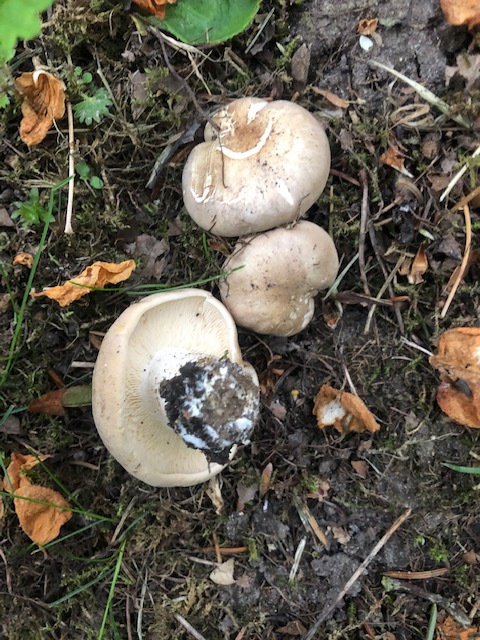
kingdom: Fungi
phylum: Basidiomycota
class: Agaricomycetes
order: Agaricales
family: Lyophyllaceae
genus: Calocybe
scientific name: Calocybe gambosa
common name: vårmusseron
